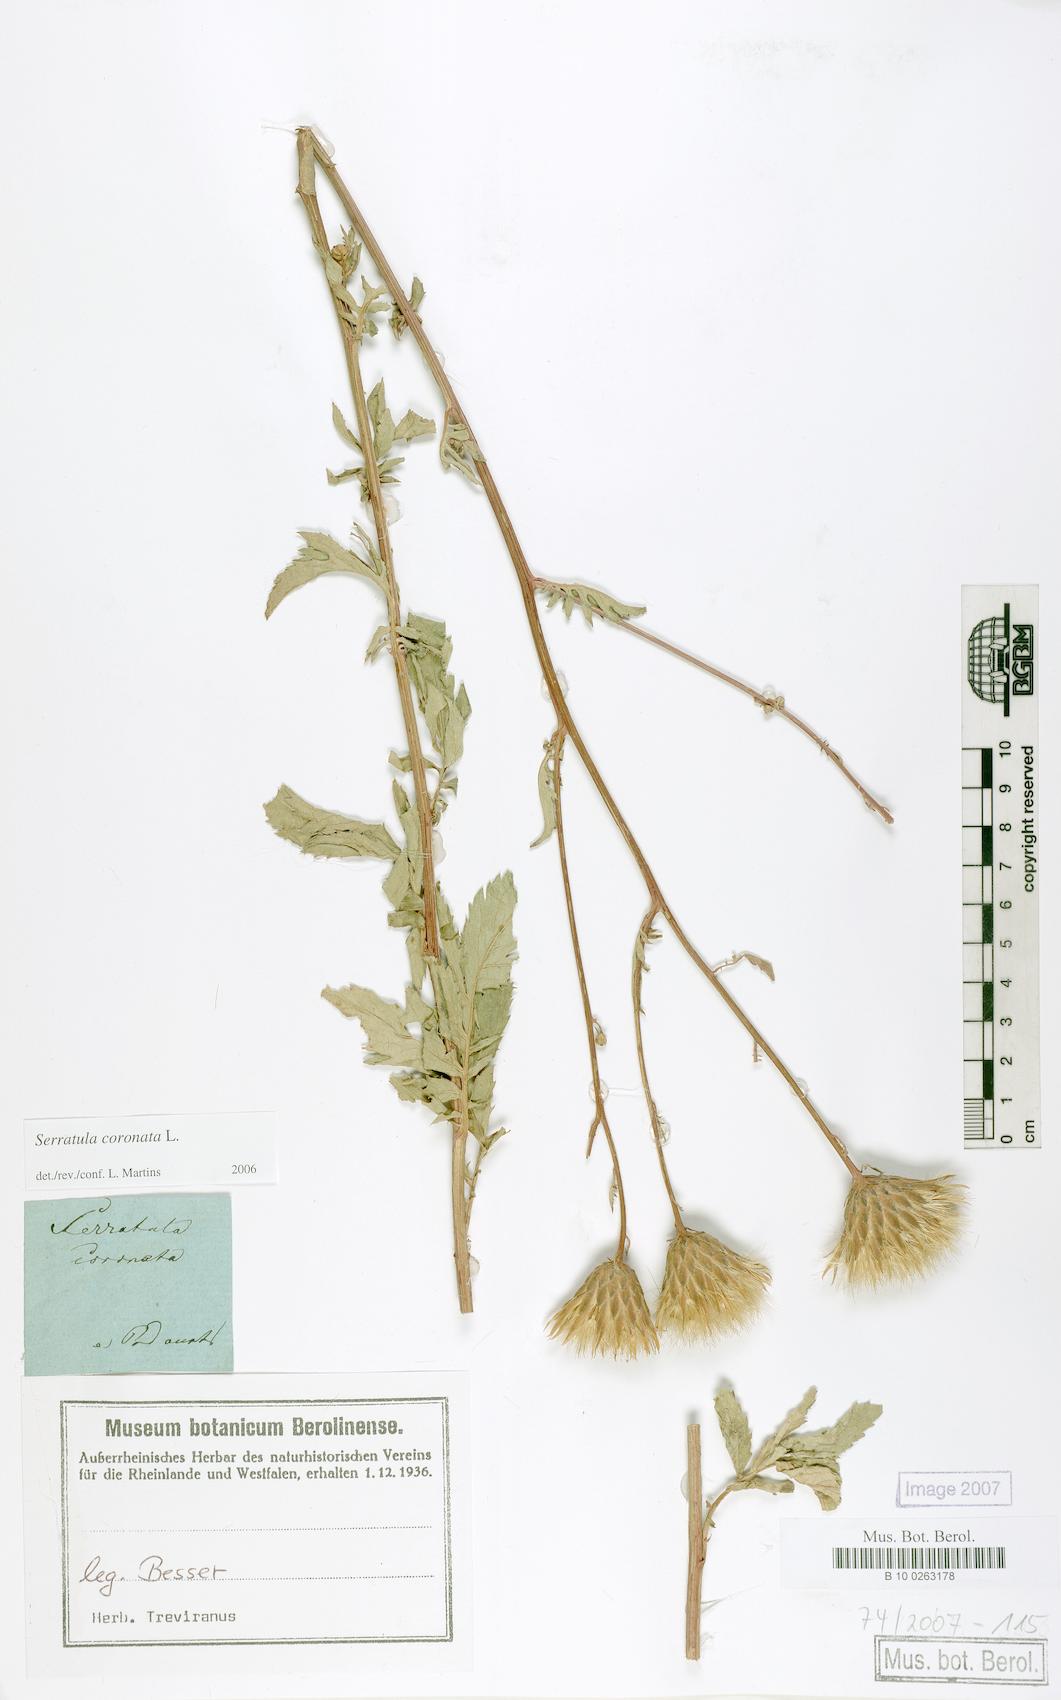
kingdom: Plantae
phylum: Tracheophyta
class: Magnoliopsida
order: Asterales
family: Asteraceae
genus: Serratula
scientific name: Serratula coronata
